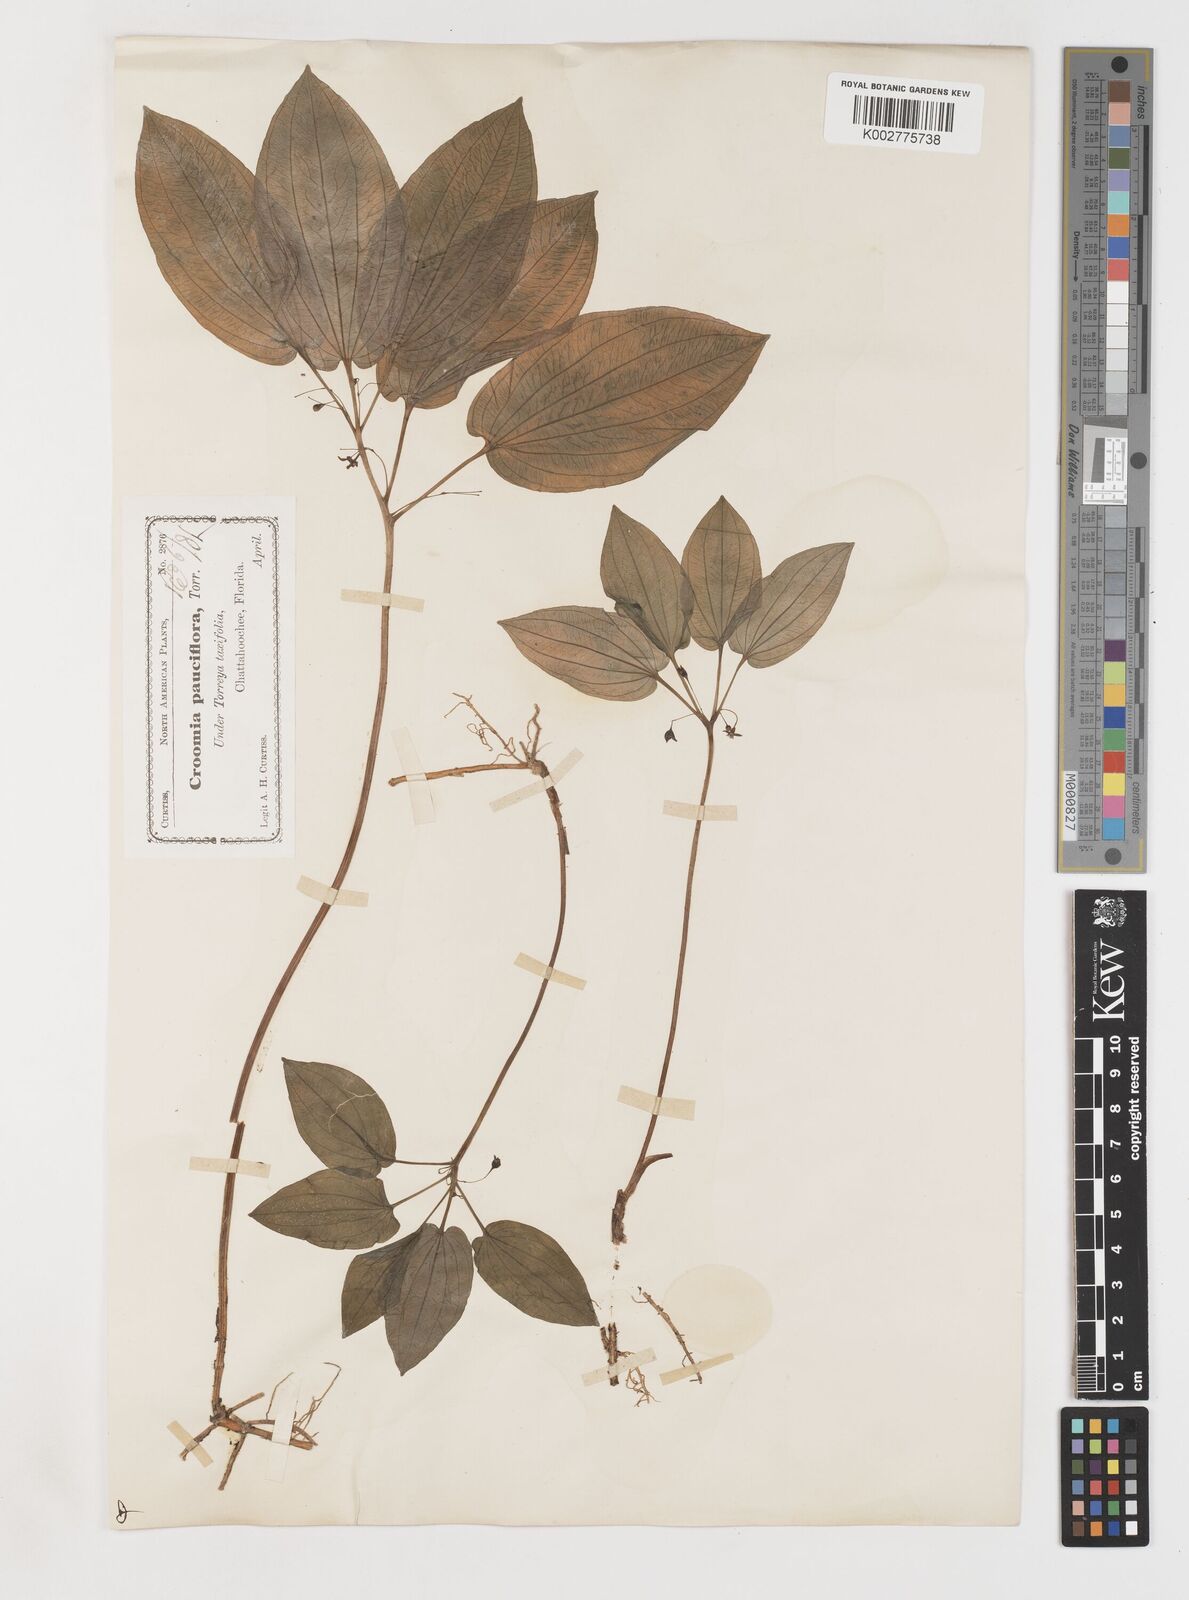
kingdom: Plantae
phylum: Tracheophyta
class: Liliopsida
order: Pandanales
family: Stemonaceae
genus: Croomia
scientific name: Croomia pauciflora
